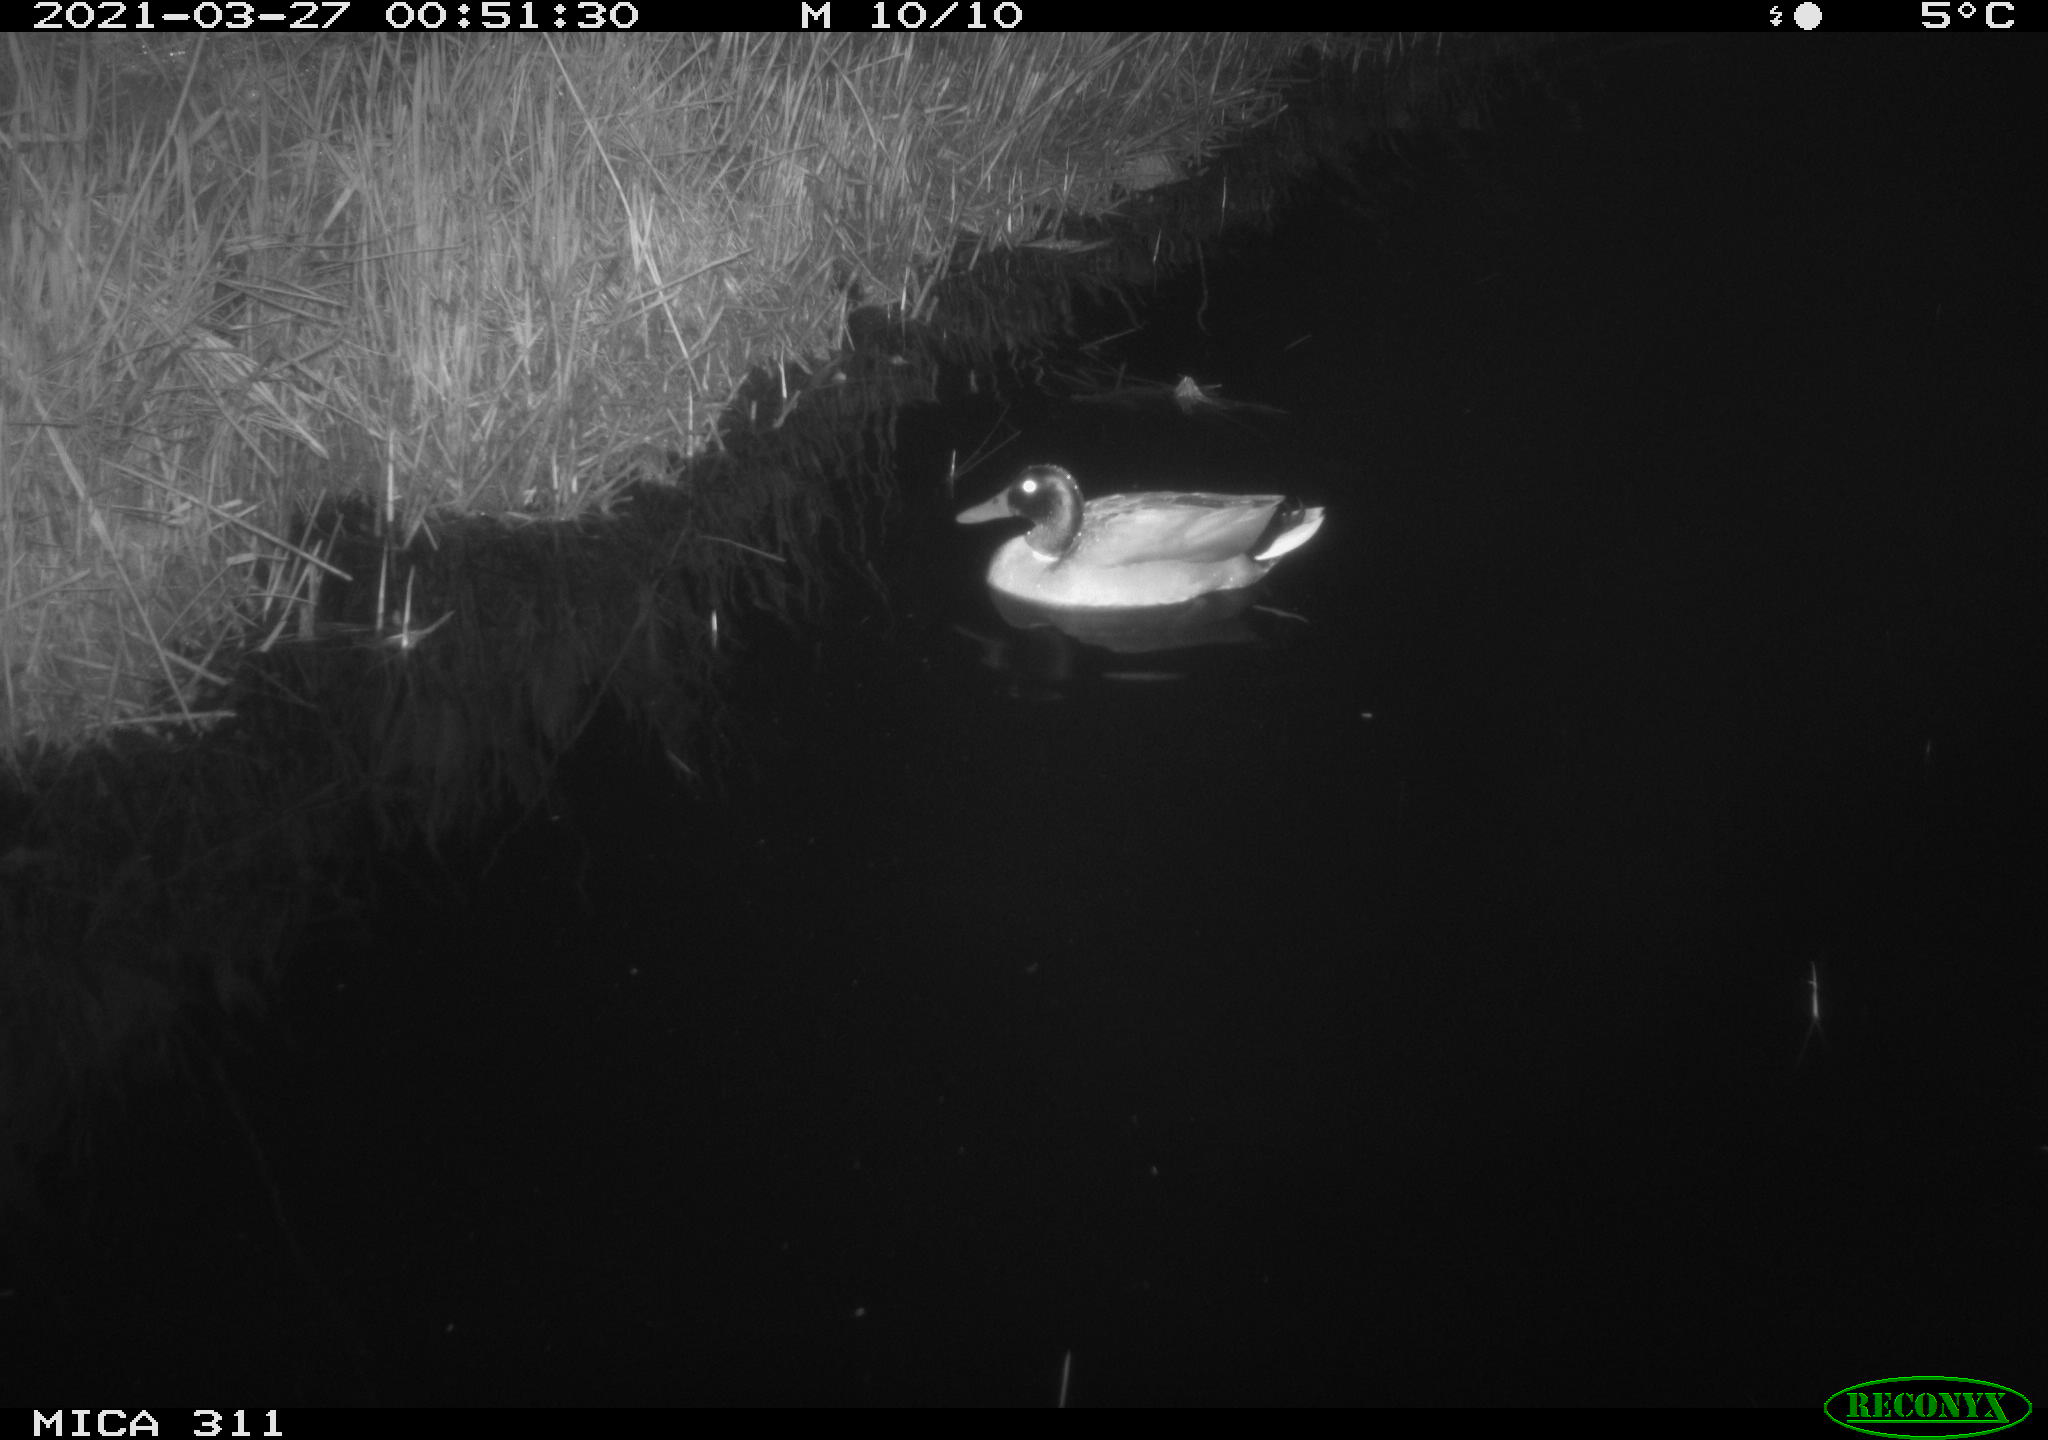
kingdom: Animalia
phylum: Chordata
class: Aves
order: Anseriformes
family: Anatidae
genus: Anas
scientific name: Anas
